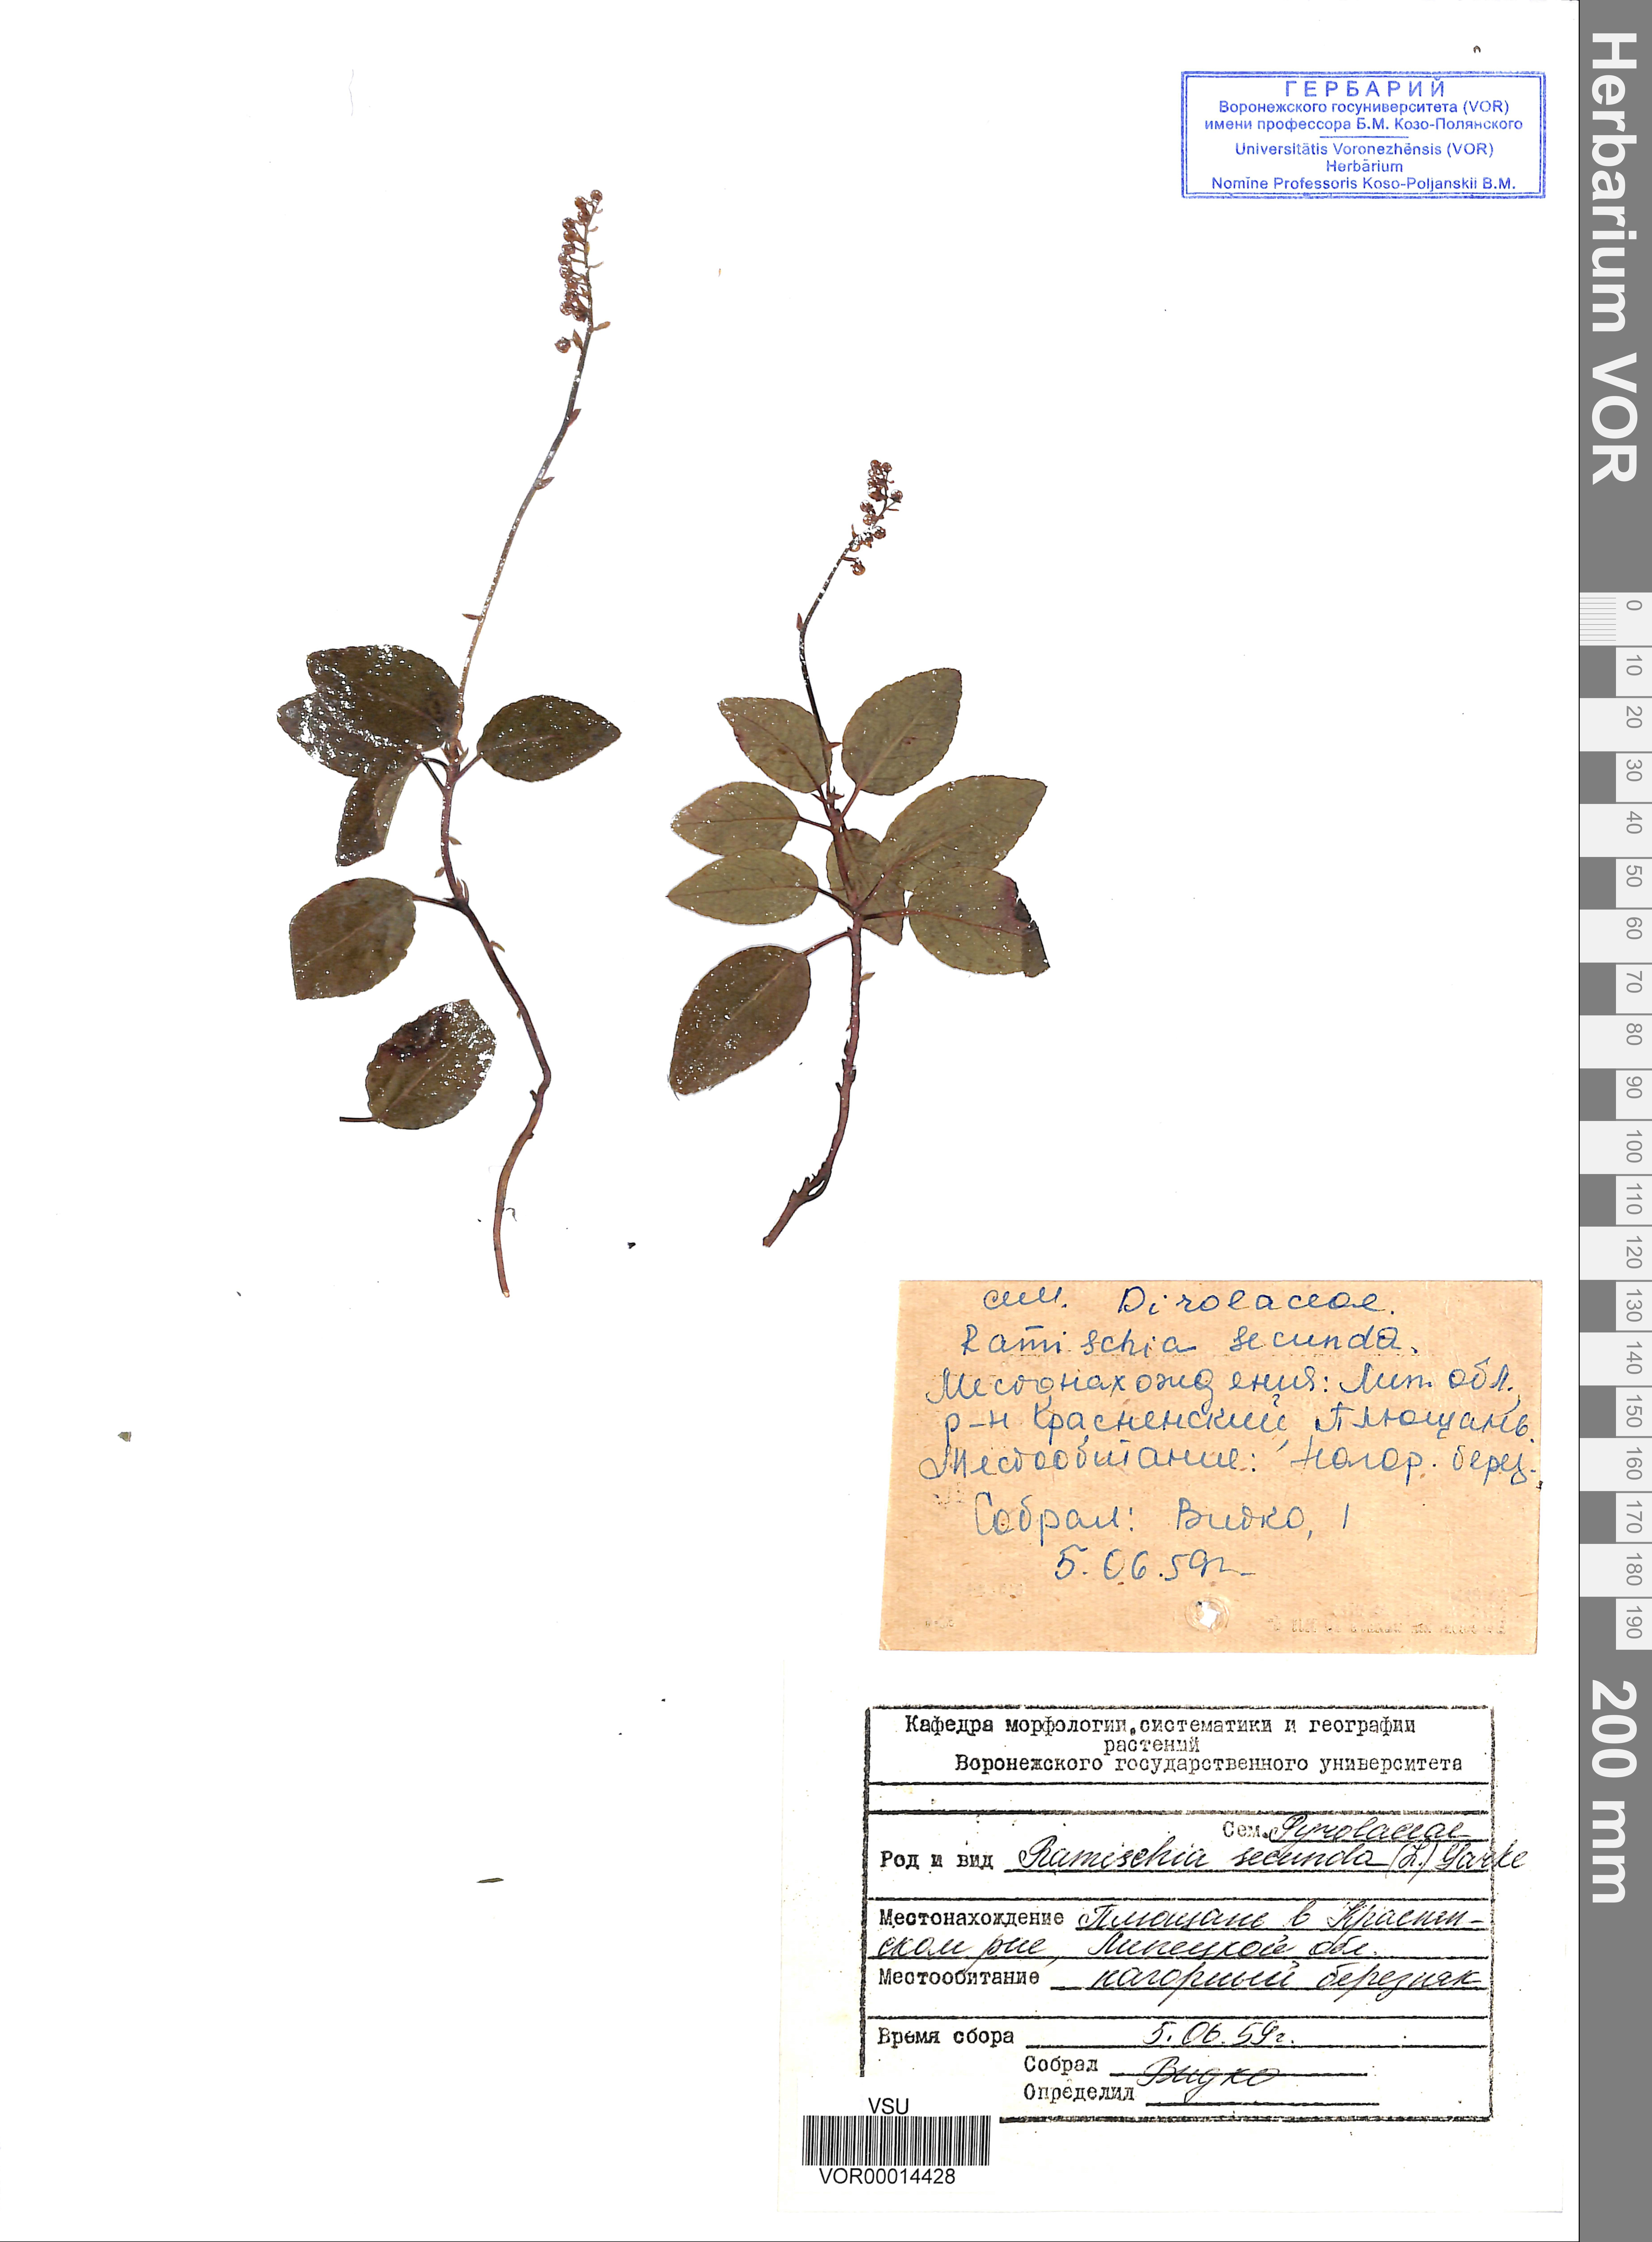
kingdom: Plantae
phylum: Tracheophyta
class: Magnoliopsida
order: Ericales
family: Ericaceae
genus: Orthilia
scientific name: Orthilia secunda
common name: One-sided orthilia
